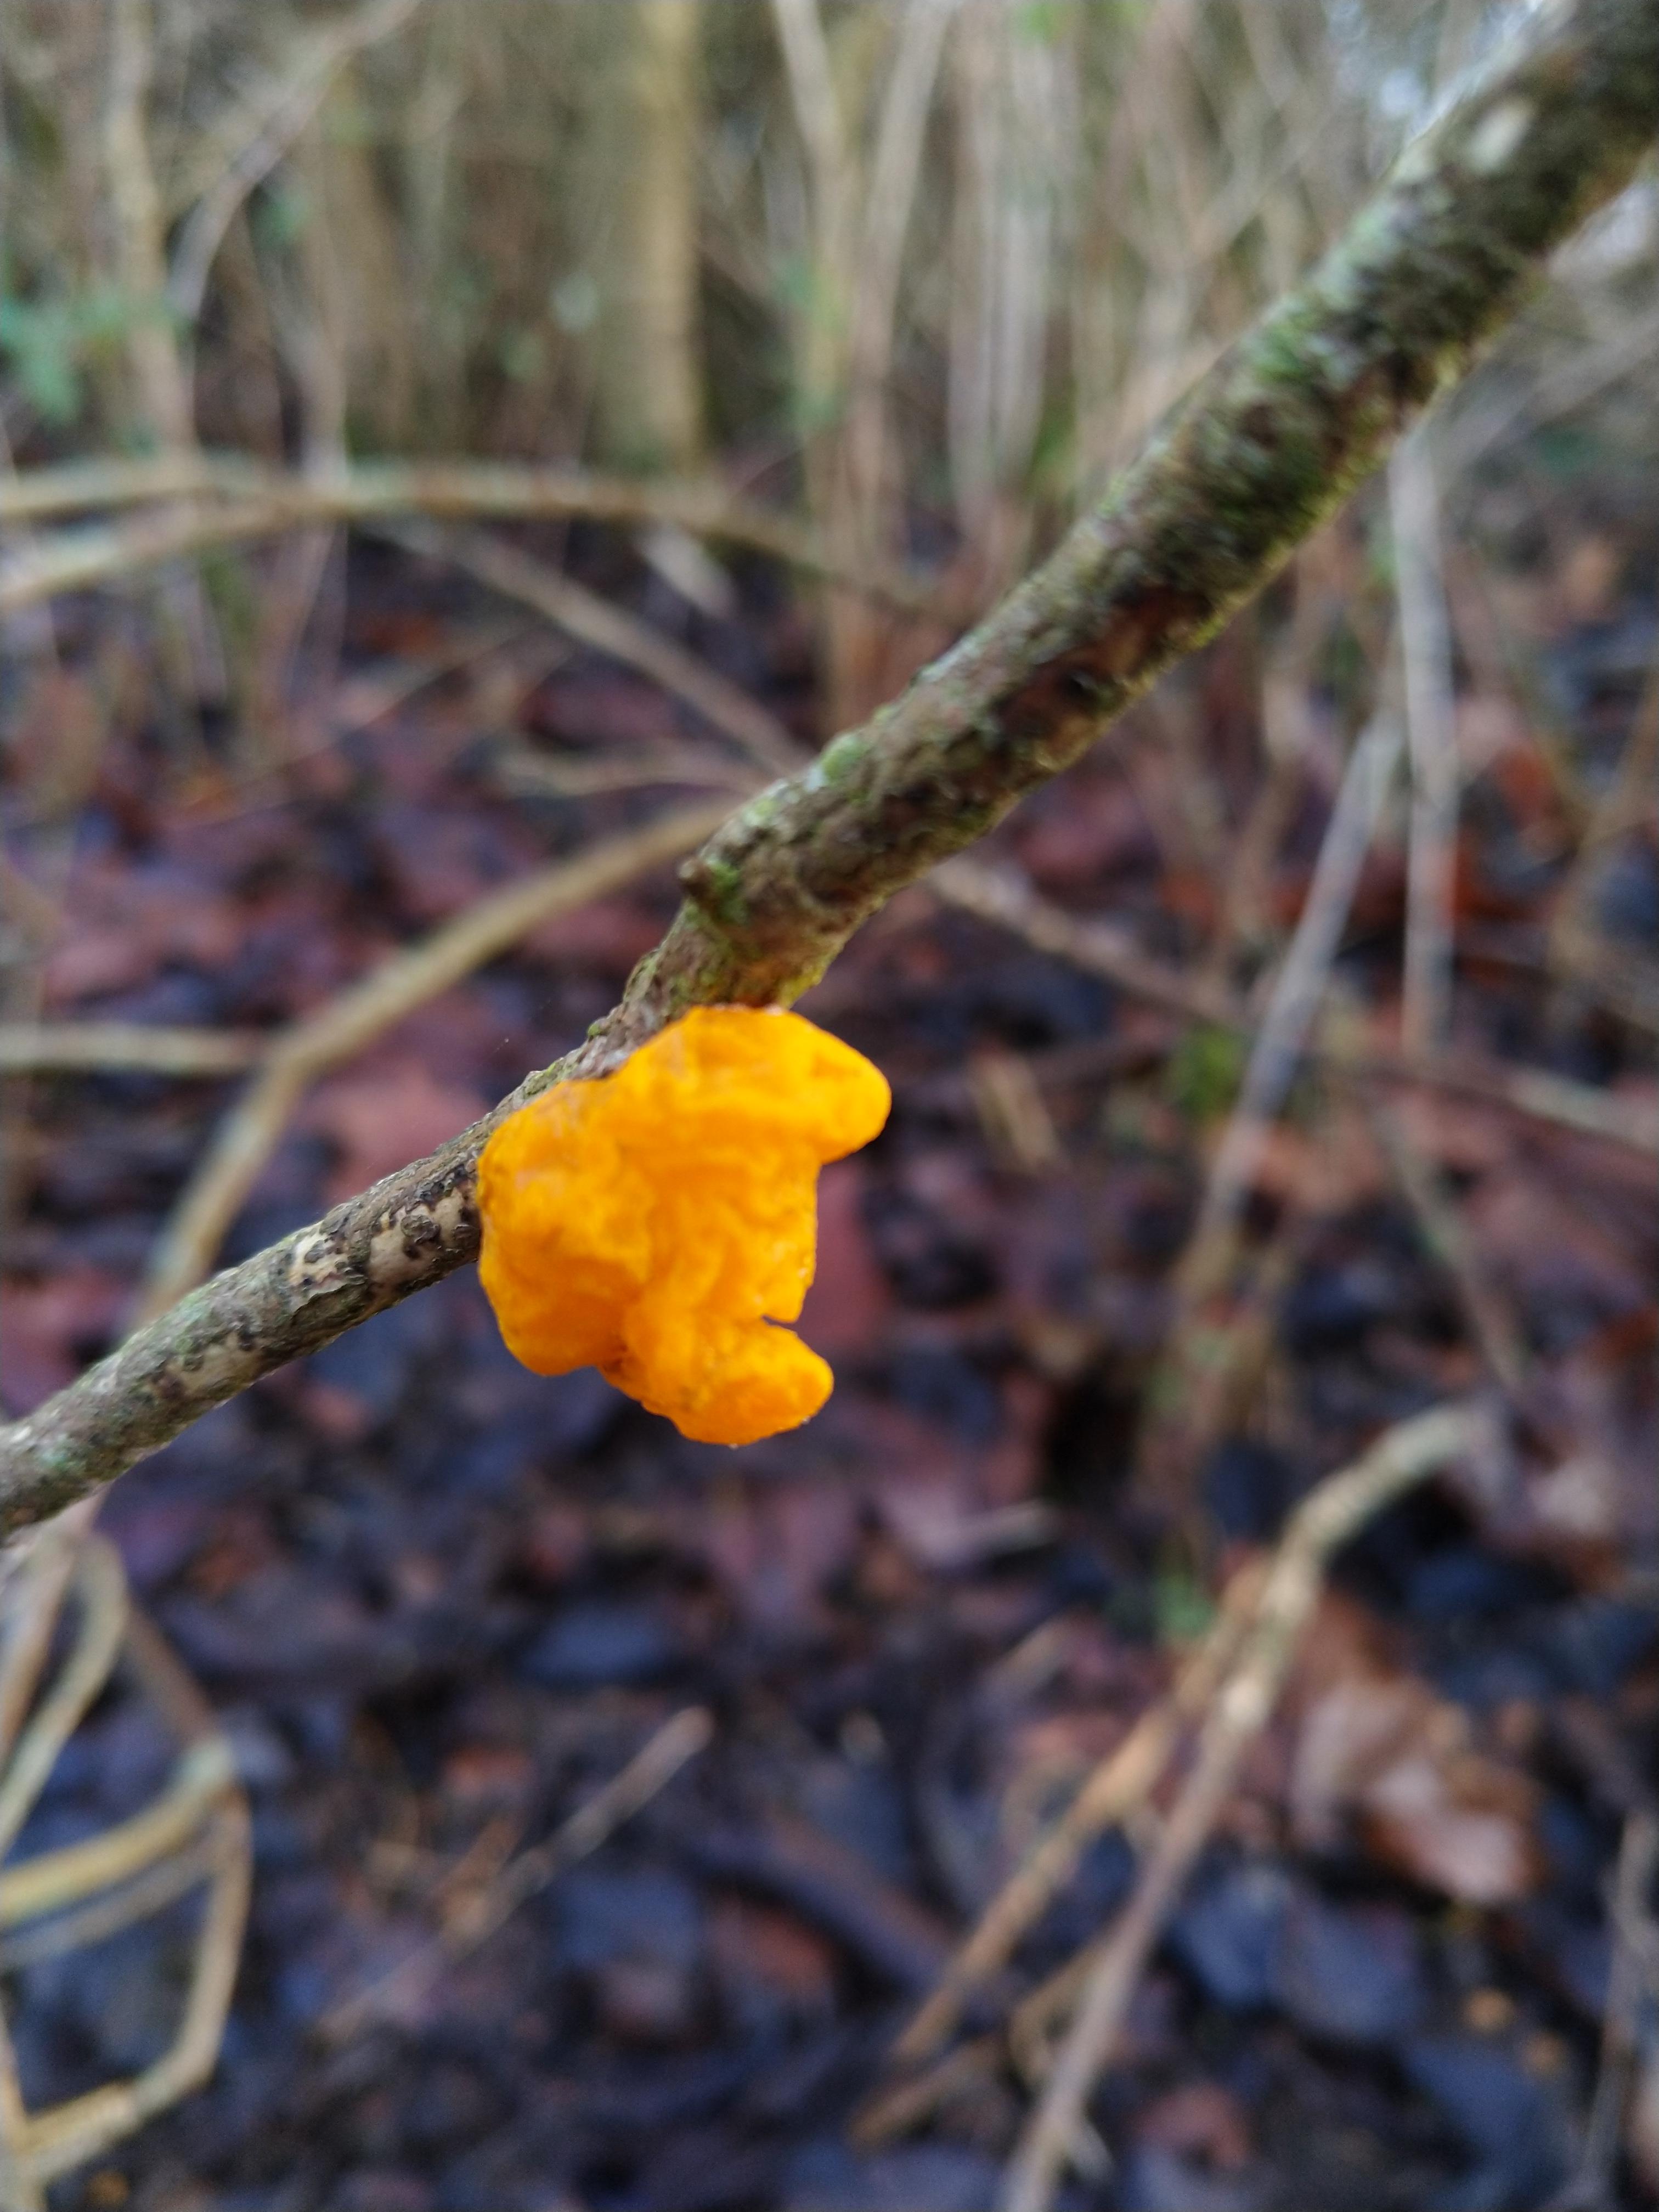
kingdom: Fungi
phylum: Basidiomycota
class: Tremellomycetes
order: Tremellales
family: Tremellaceae
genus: Tremella
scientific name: Tremella mesenterica
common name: gul bævresvamp
